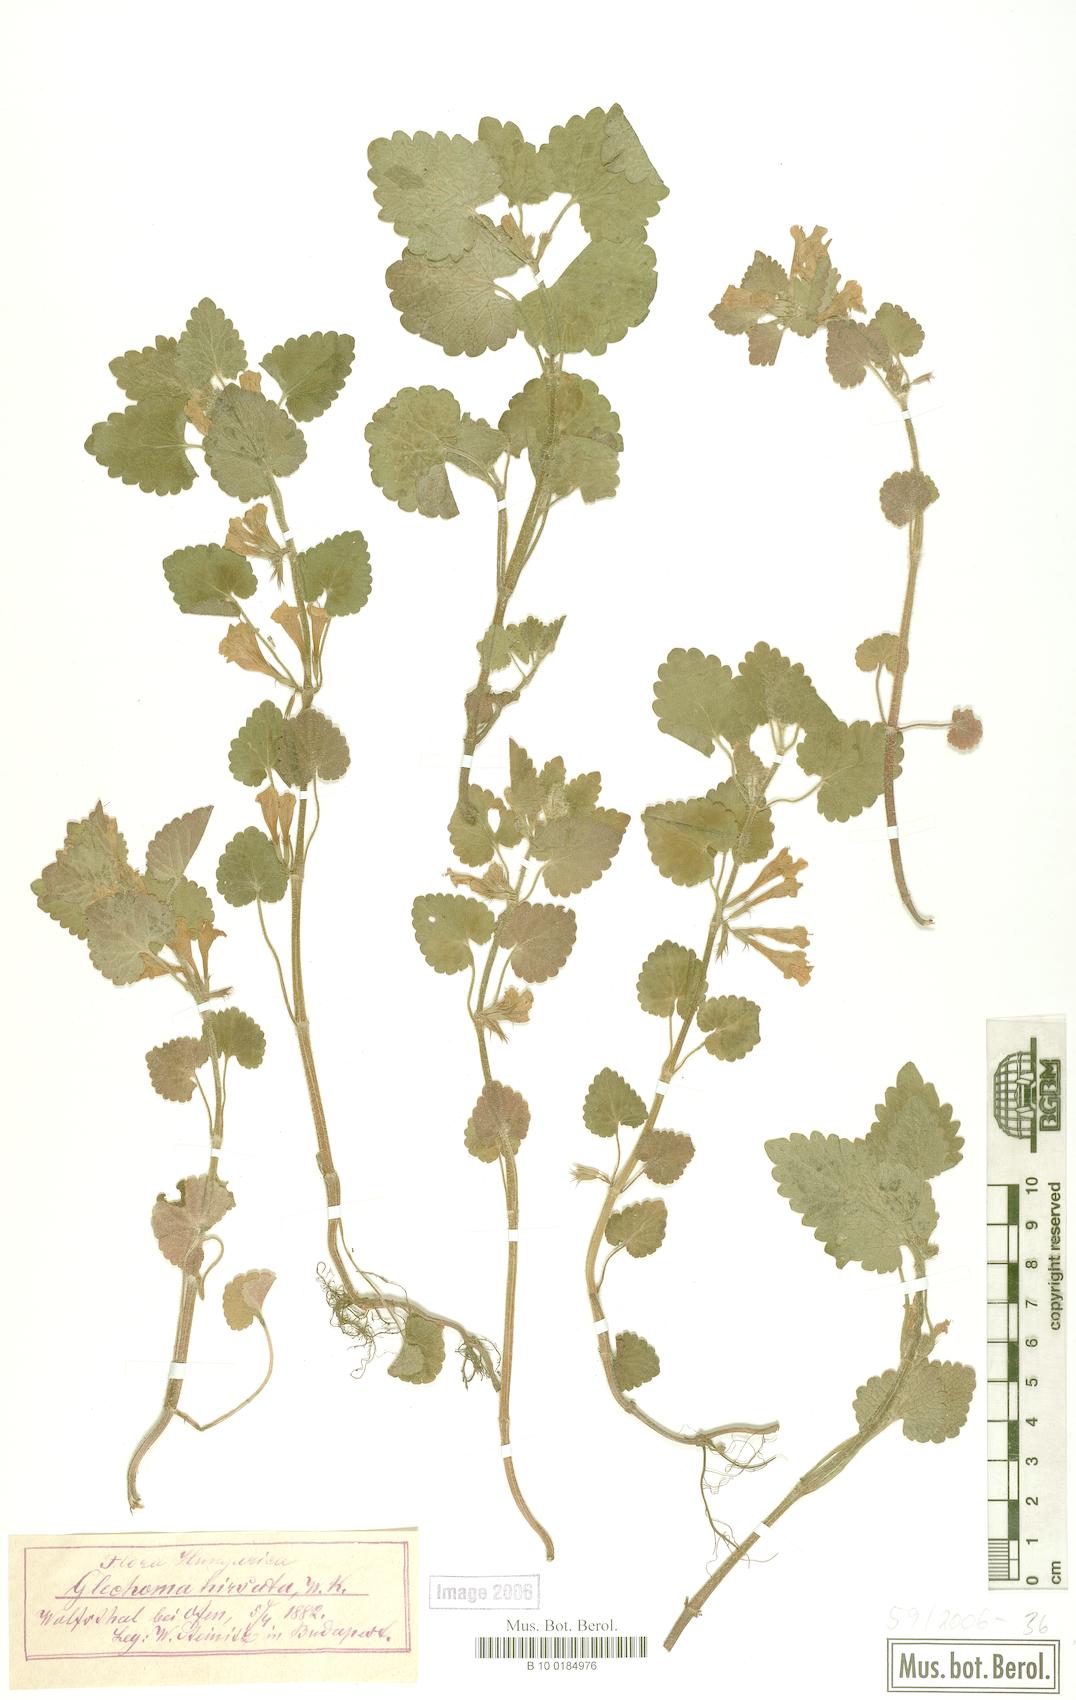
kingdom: Plantae
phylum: Tracheophyta
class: Magnoliopsida
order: Lamiales
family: Lamiaceae
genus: Glechoma
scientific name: Glechoma hirsuta
